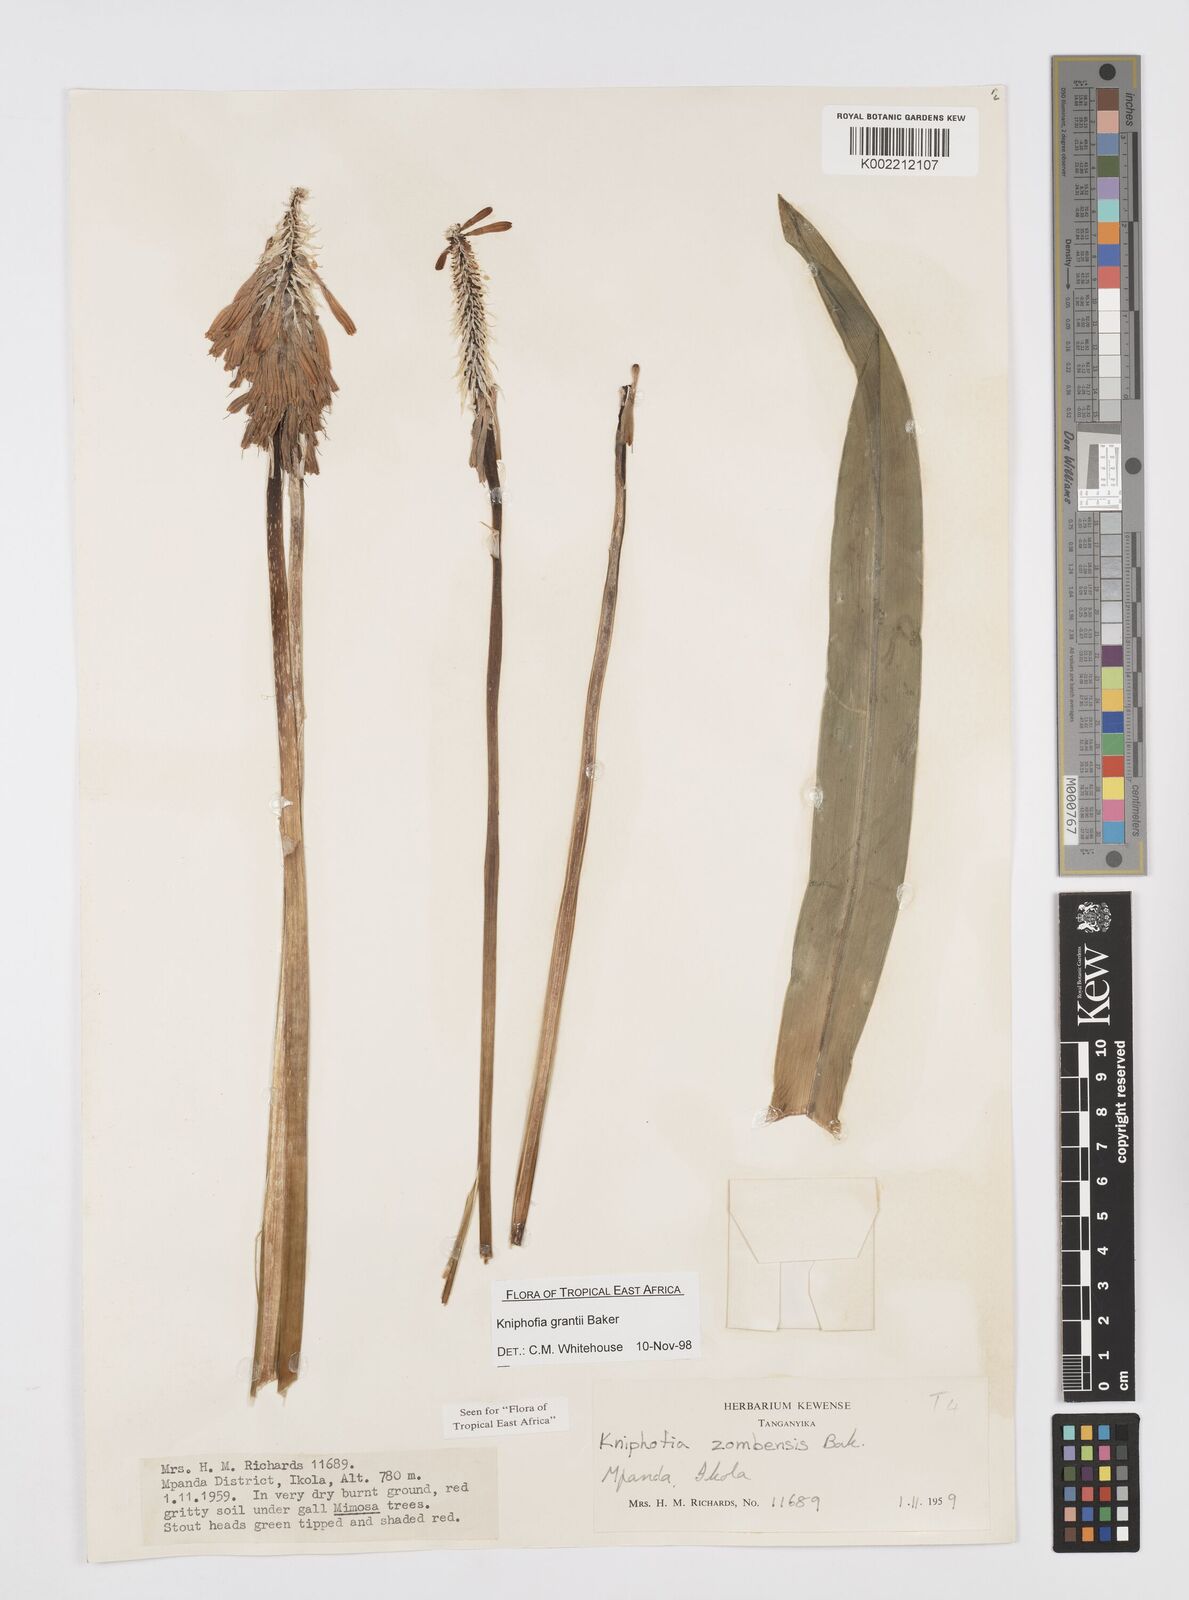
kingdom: Plantae
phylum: Tracheophyta
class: Liliopsida
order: Asparagales
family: Asphodelaceae
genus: Kniphofia
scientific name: Kniphofia grantii
